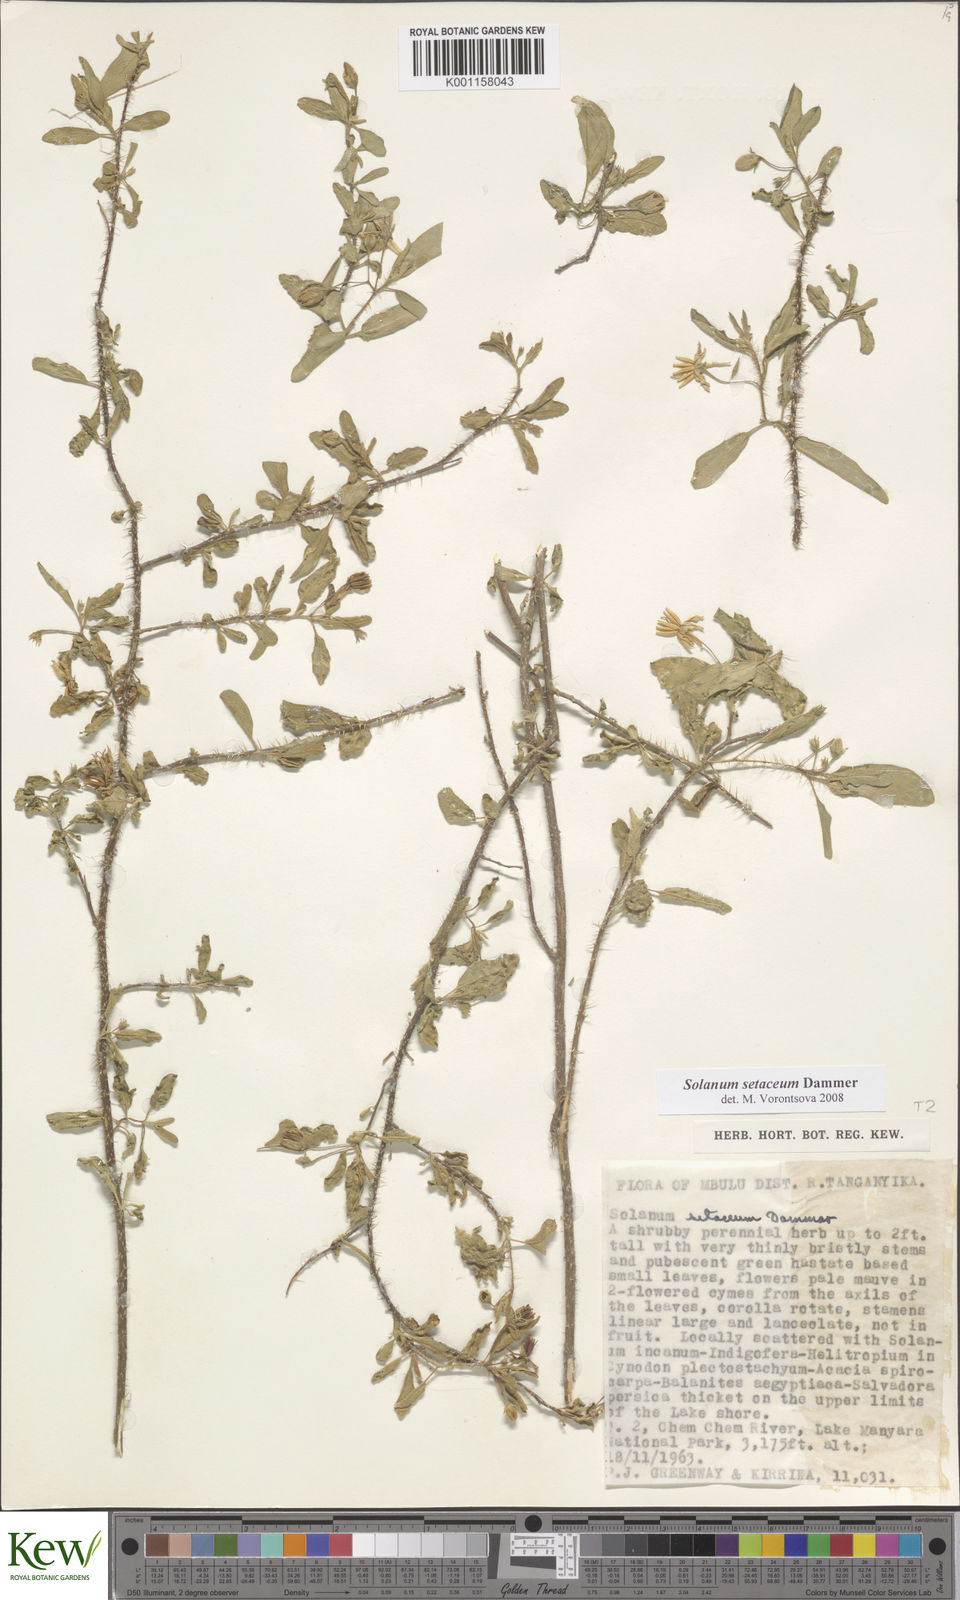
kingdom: Plantae
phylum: Tracheophyta
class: Magnoliopsida
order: Solanales
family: Solanaceae
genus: Solanum
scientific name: Solanum setaceum
